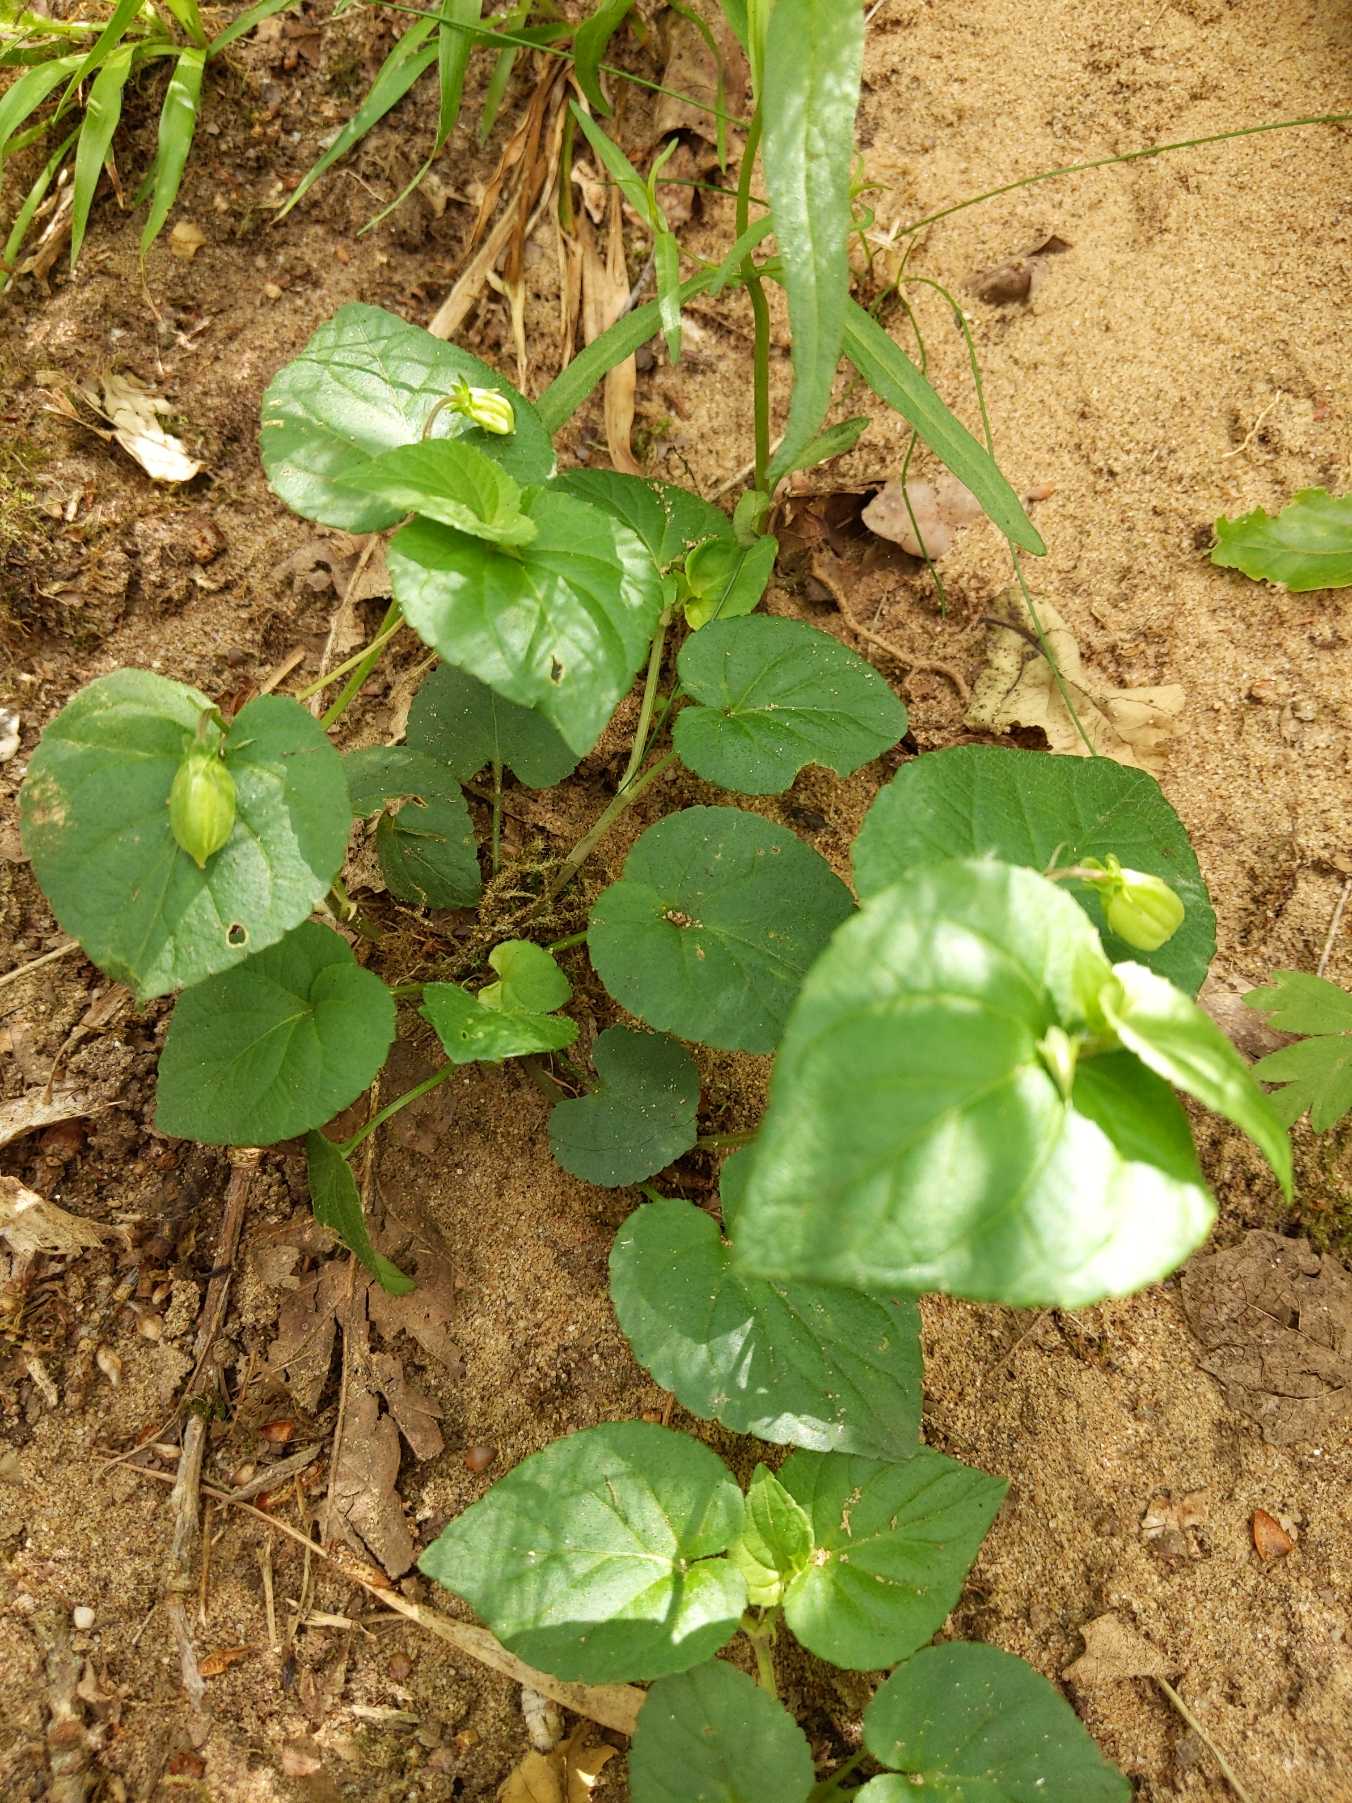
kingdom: Plantae
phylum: Tracheophyta
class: Magnoliopsida
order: Malpighiales
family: Violaceae
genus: Viola
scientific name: Viola riviniana
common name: Krat-viol
